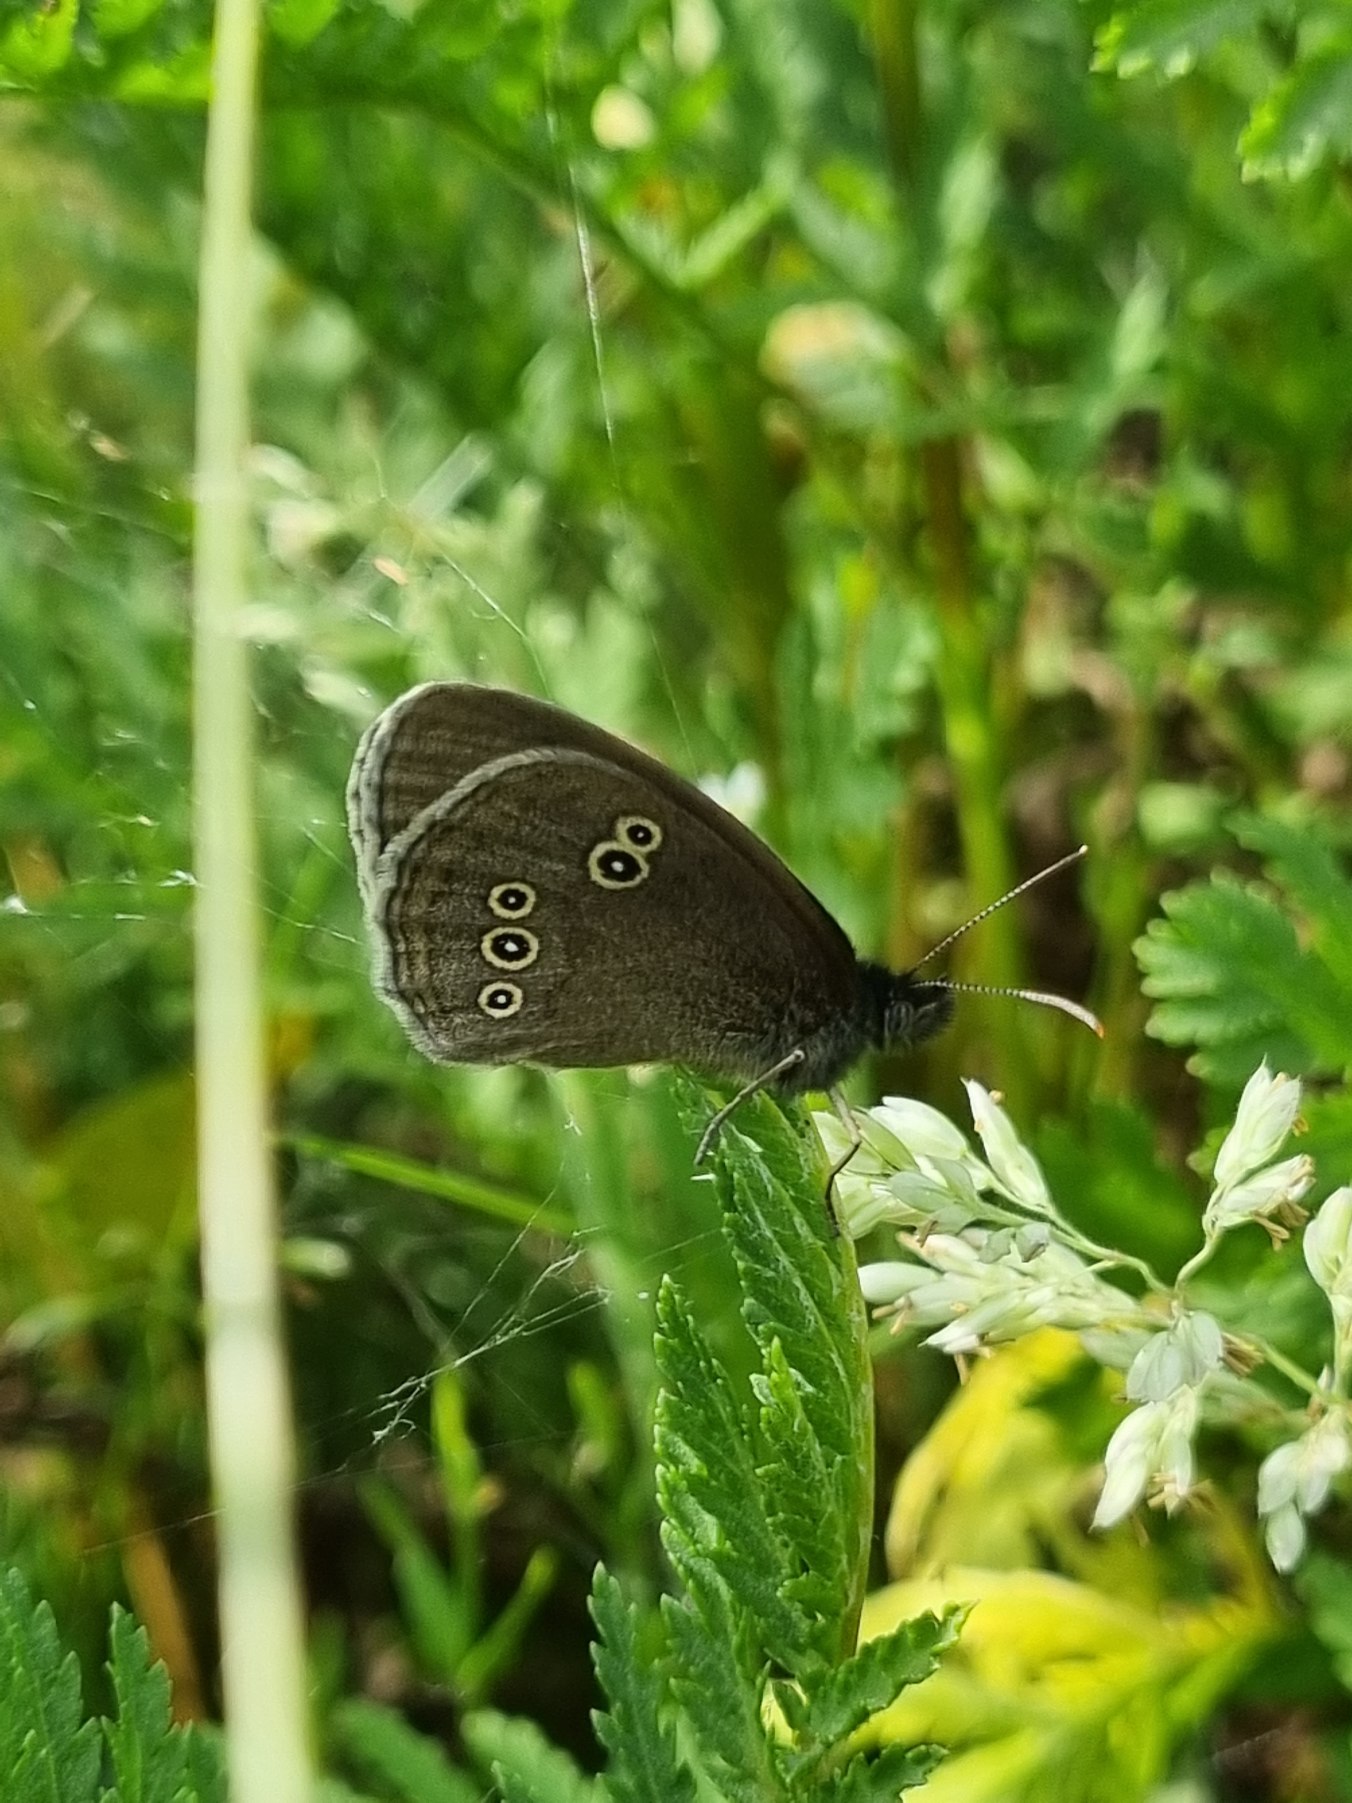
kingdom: Animalia
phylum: Arthropoda
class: Insecta
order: Lepidoptera
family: Nymphalidae
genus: Aphantopus
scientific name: Aphantopus hyperantus
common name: Engrandøje
